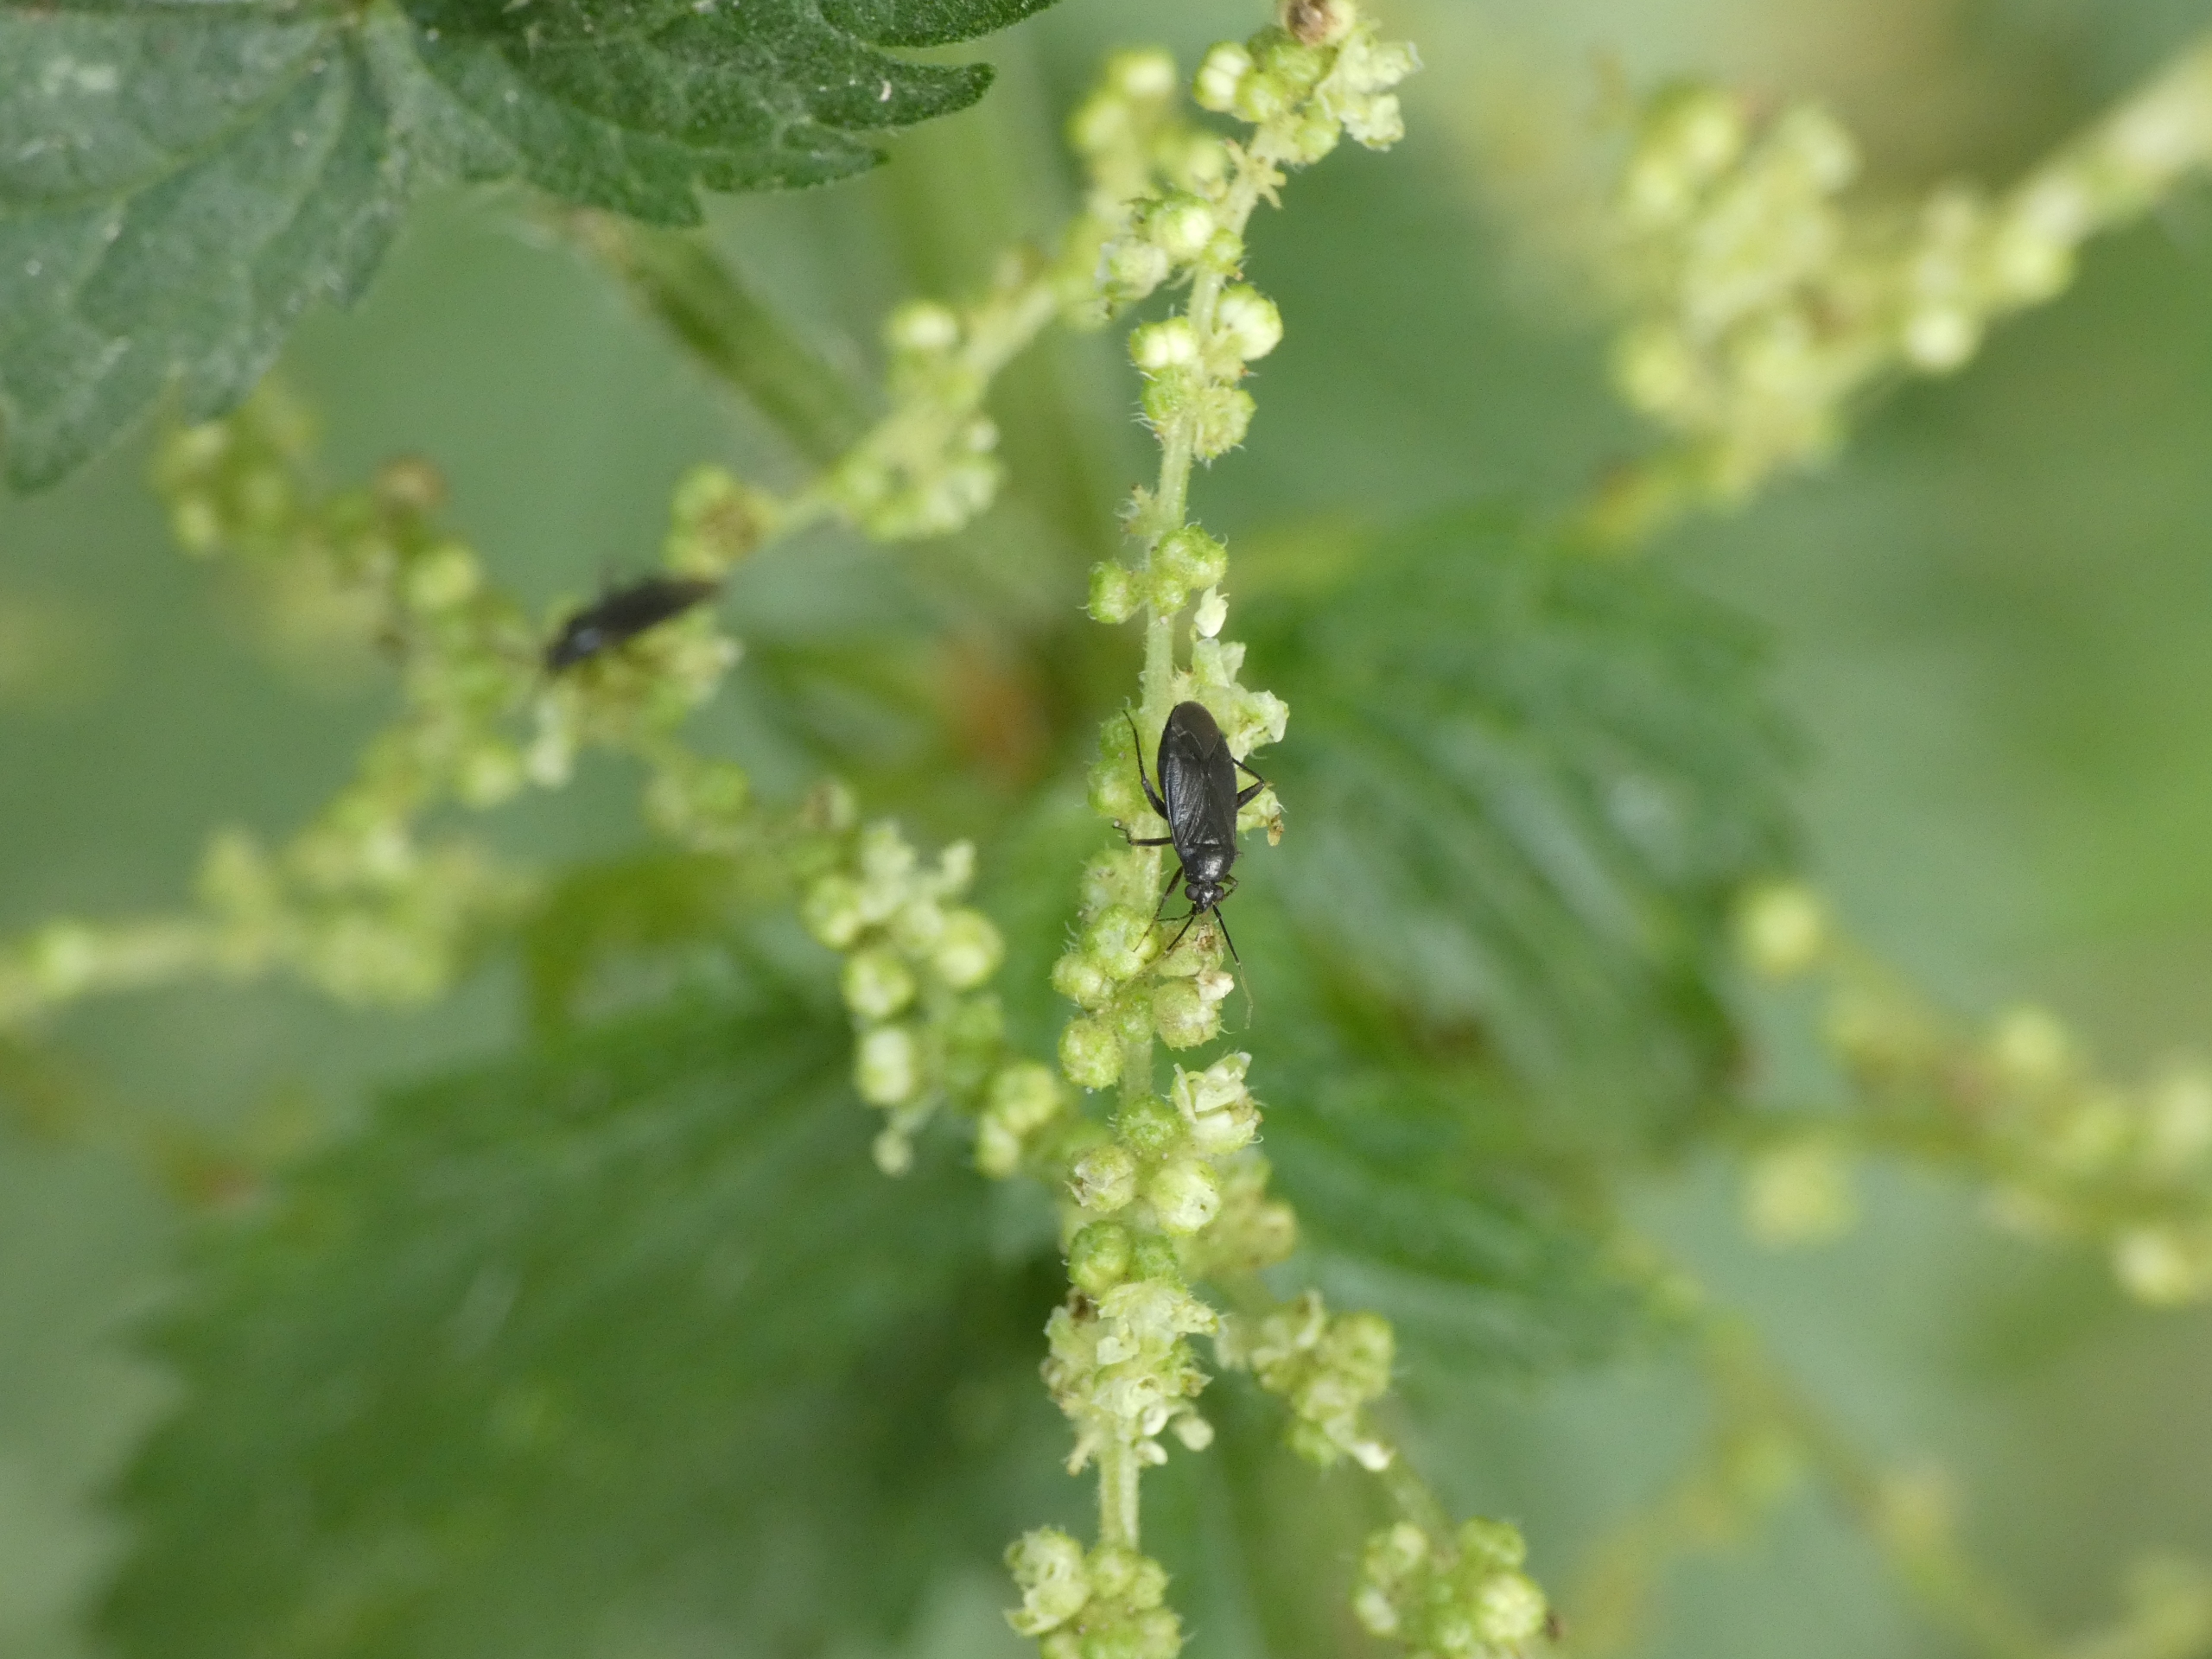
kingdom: Animalia
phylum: Arthropoda
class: Insecta
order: Hemiptera
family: Miridae
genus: Plagiognathus
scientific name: Plagiognathus arbustorum
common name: Almindelig nældeblomstertæge
